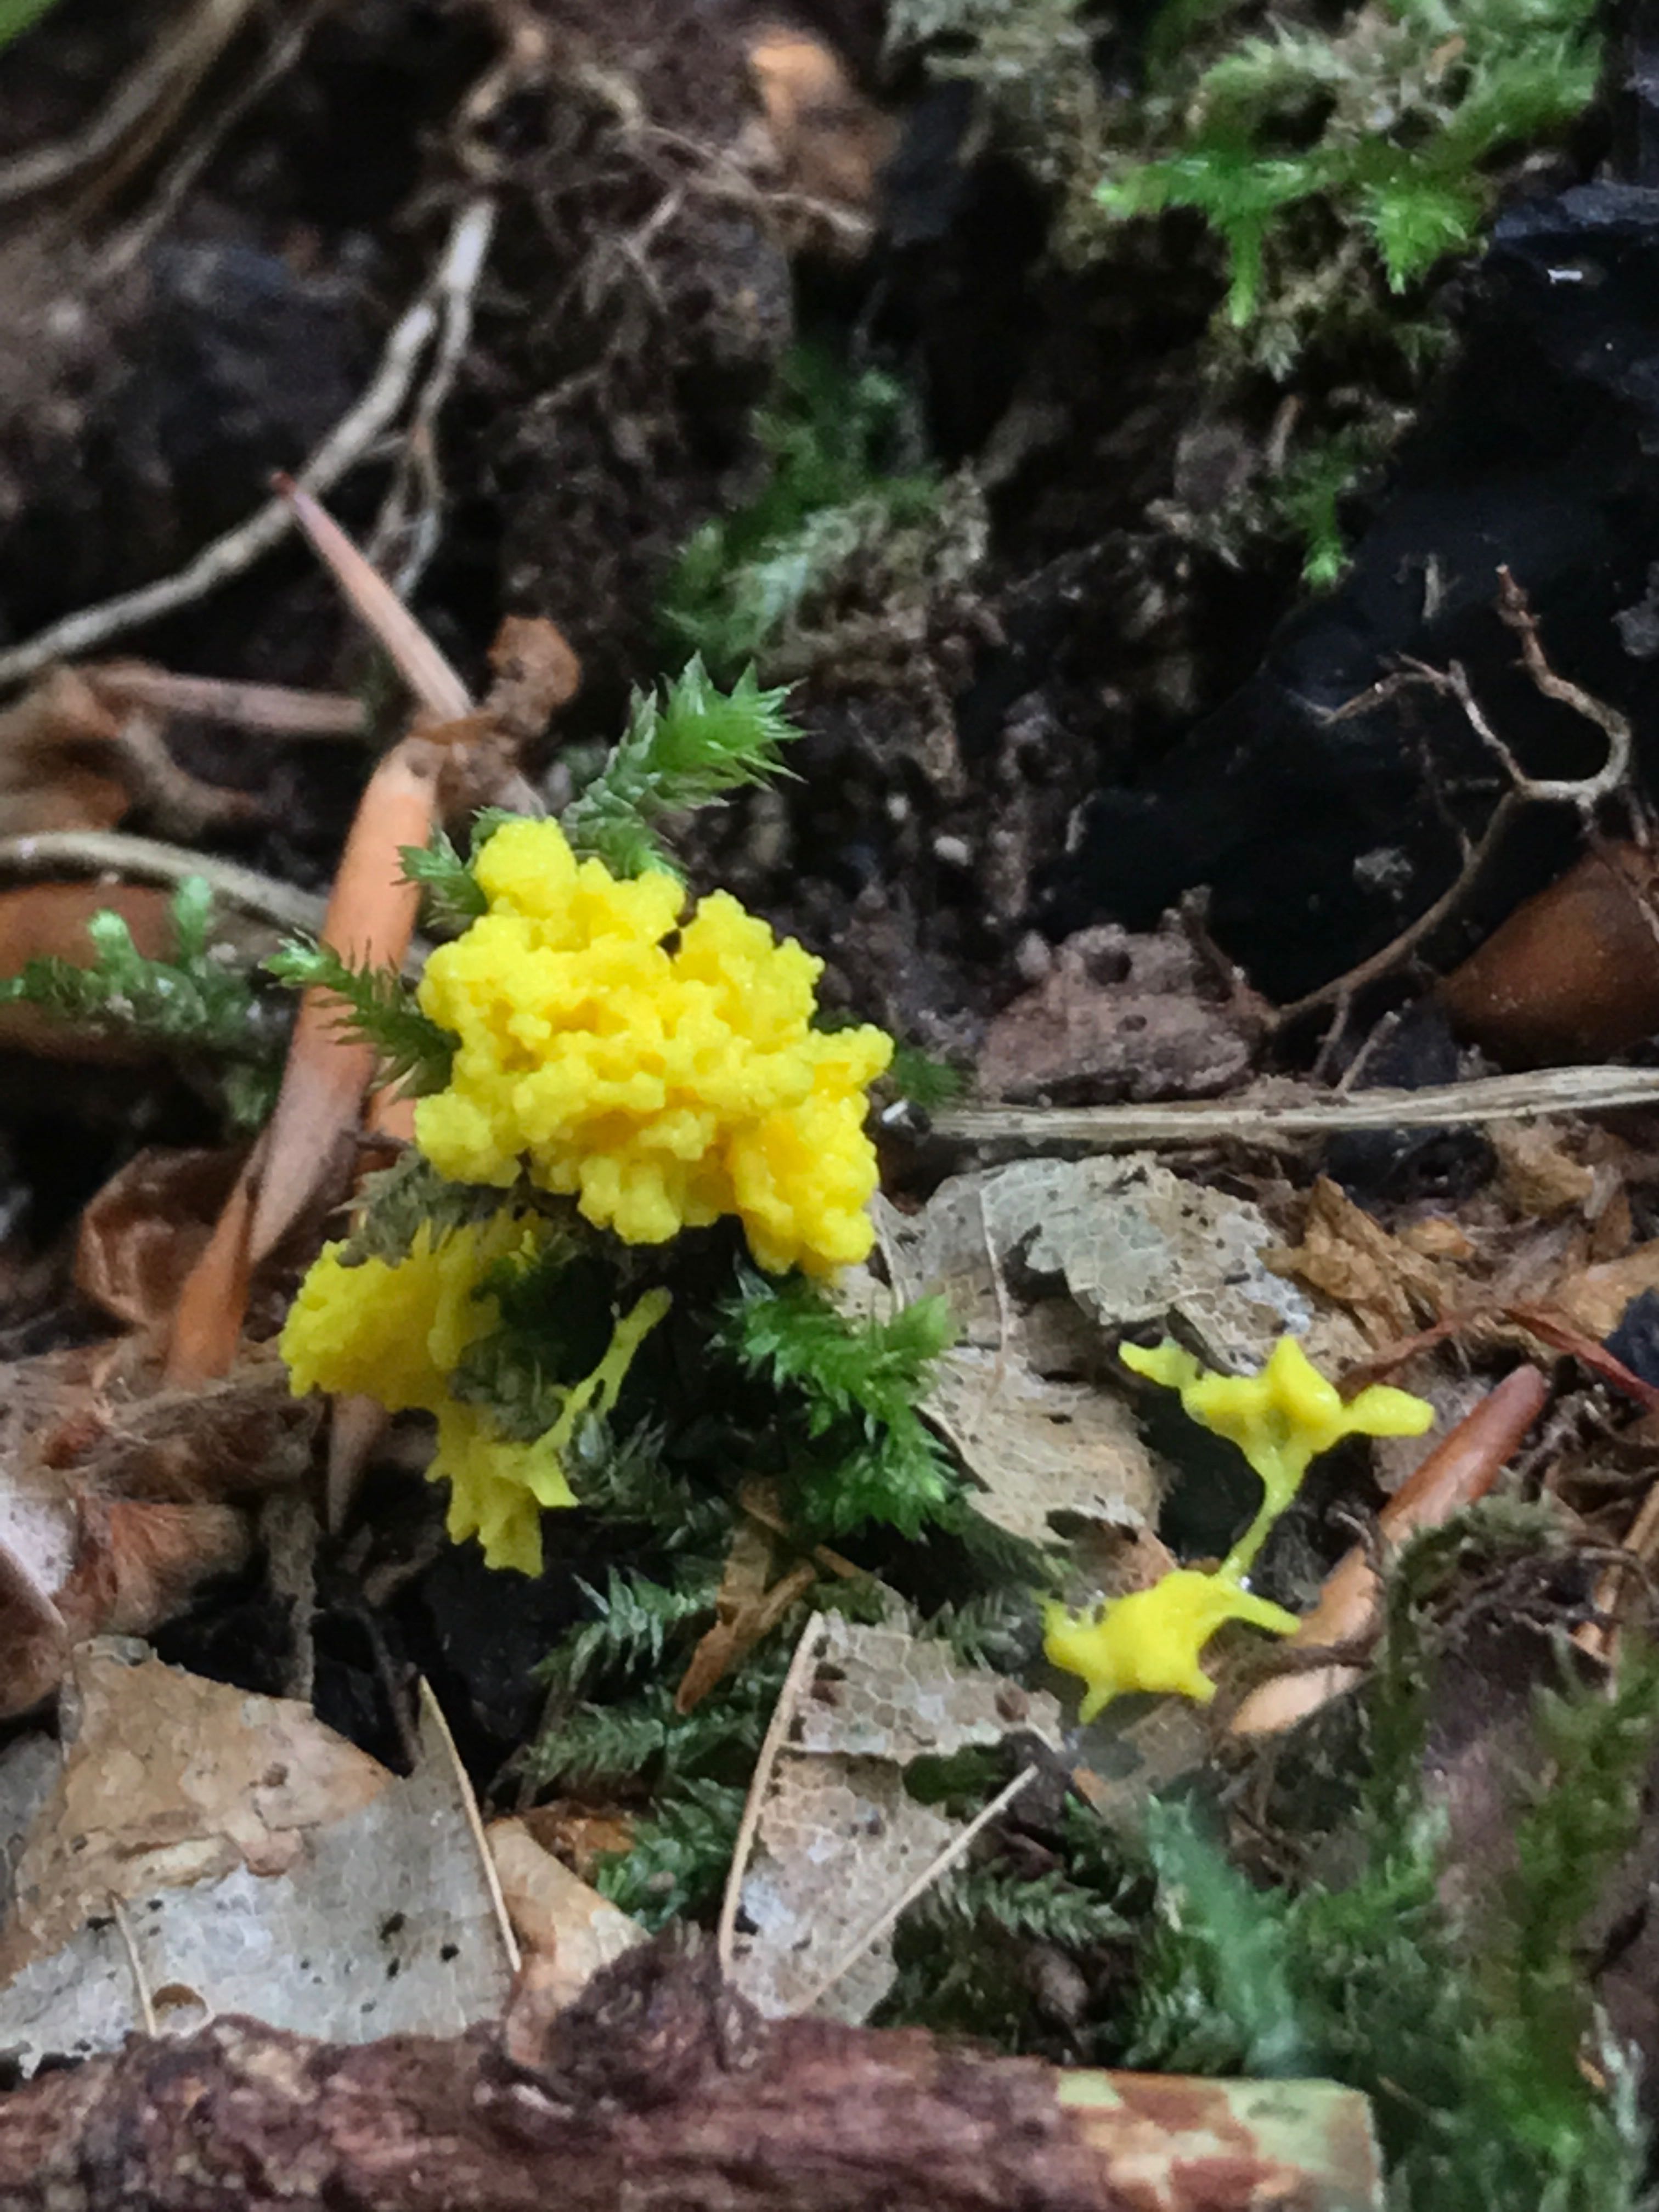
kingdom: Protozoa
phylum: Mycetozoa
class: Myxomycetes
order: Physarales
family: Physaraceae
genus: Fuligo
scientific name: Fuligo septica
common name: gul troldsmør
